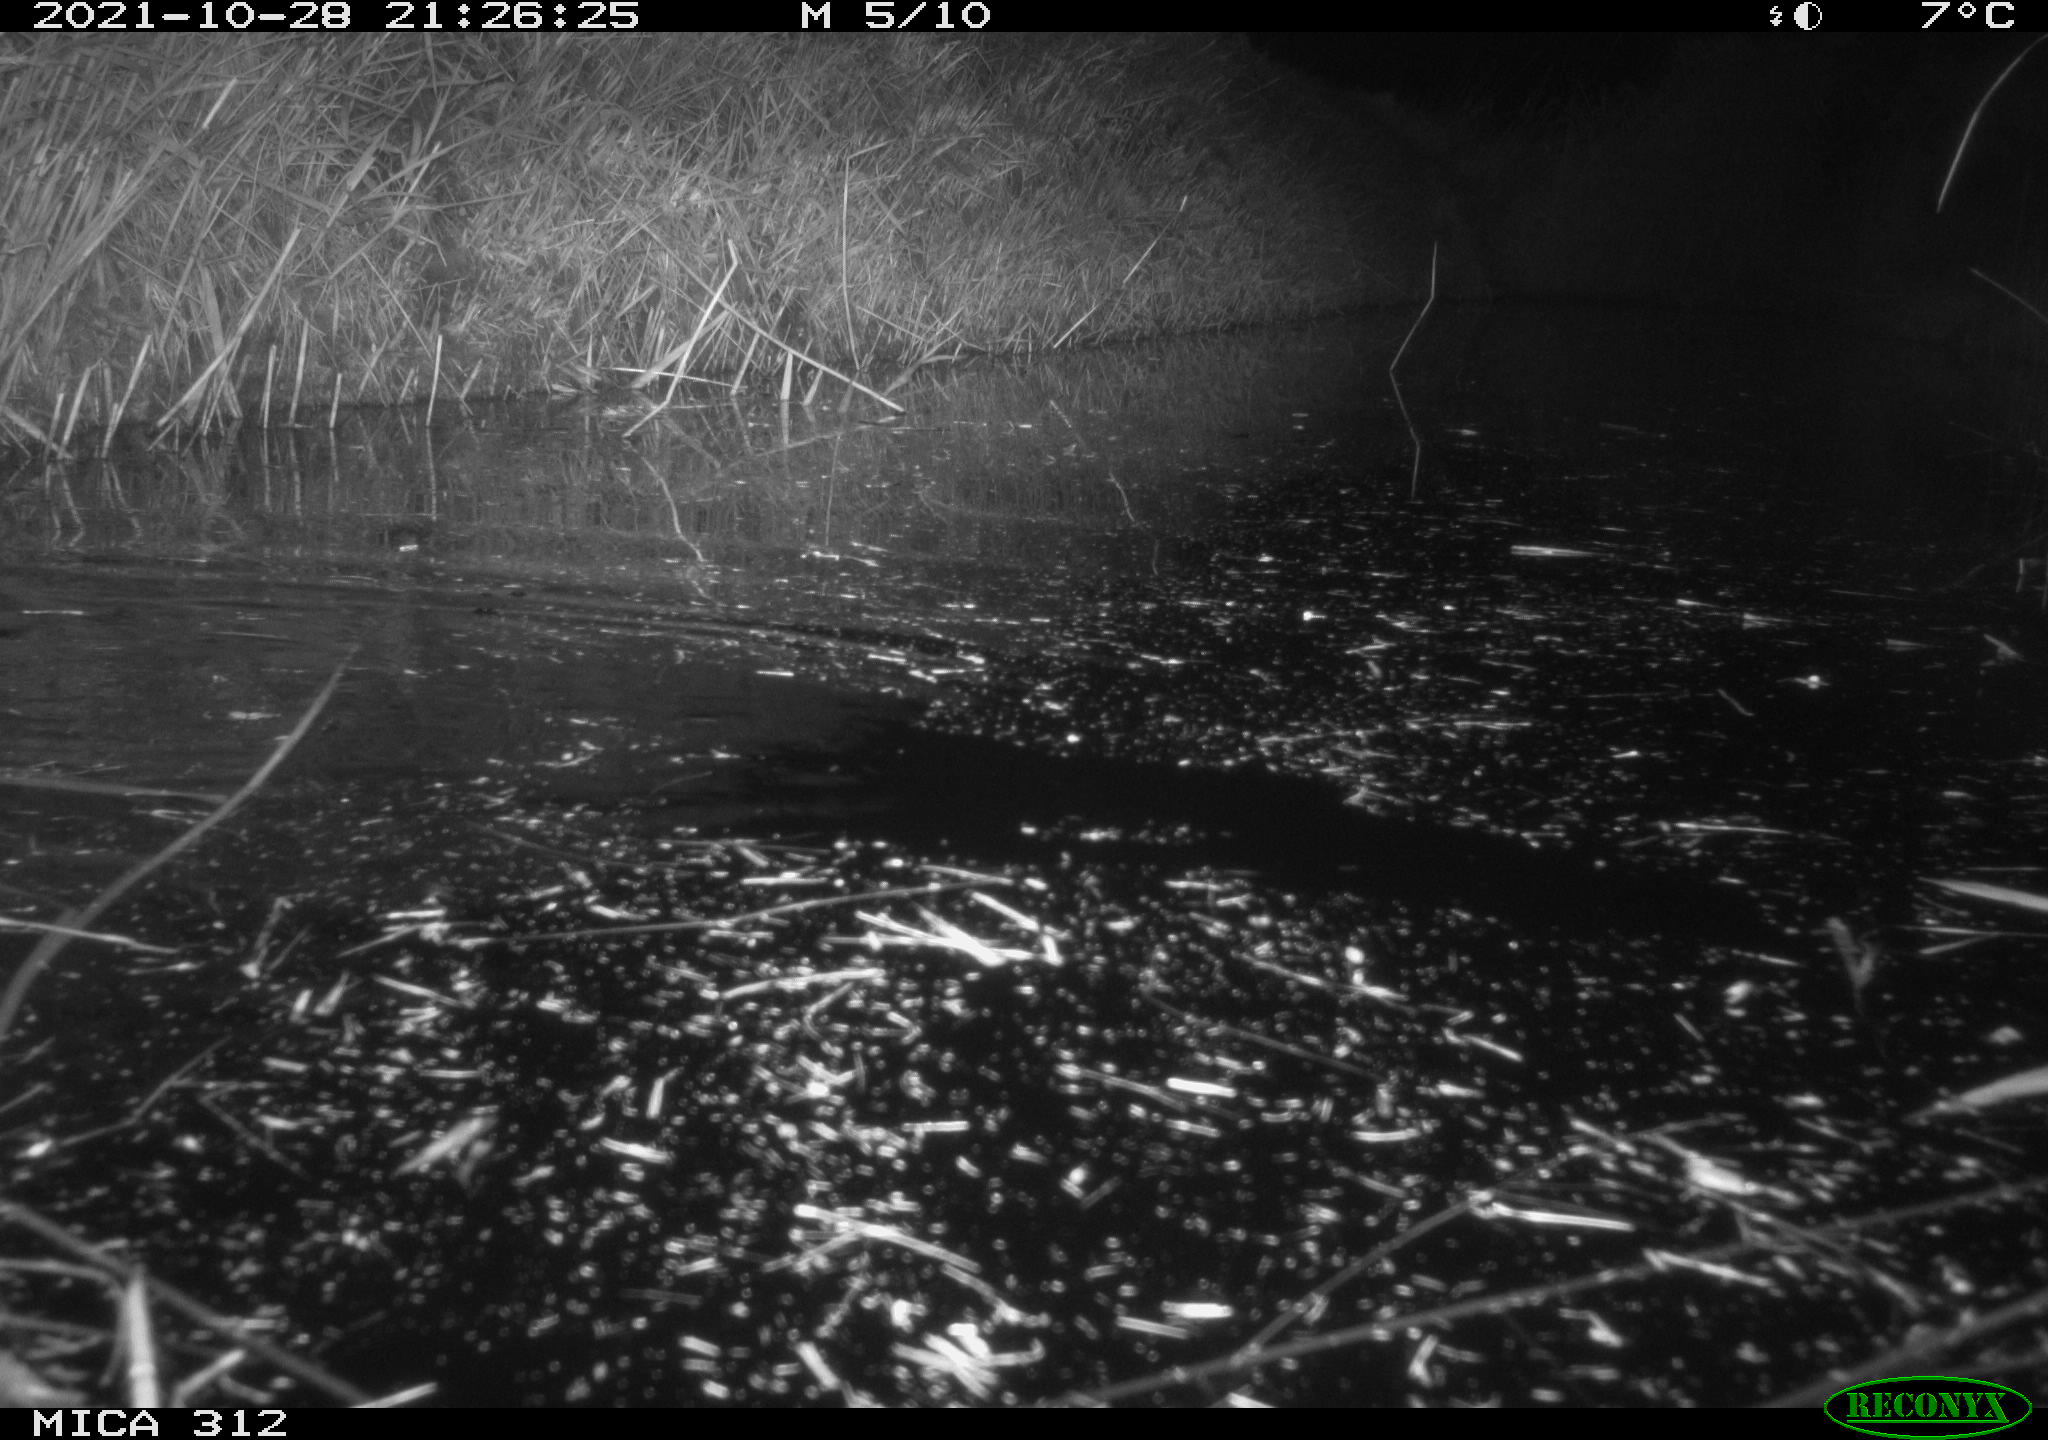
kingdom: Animalia
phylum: Chordata
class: Mammalia
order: Rodentia
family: Muridae
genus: Rattus
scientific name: Rattus norvegicus
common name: Brown rat
